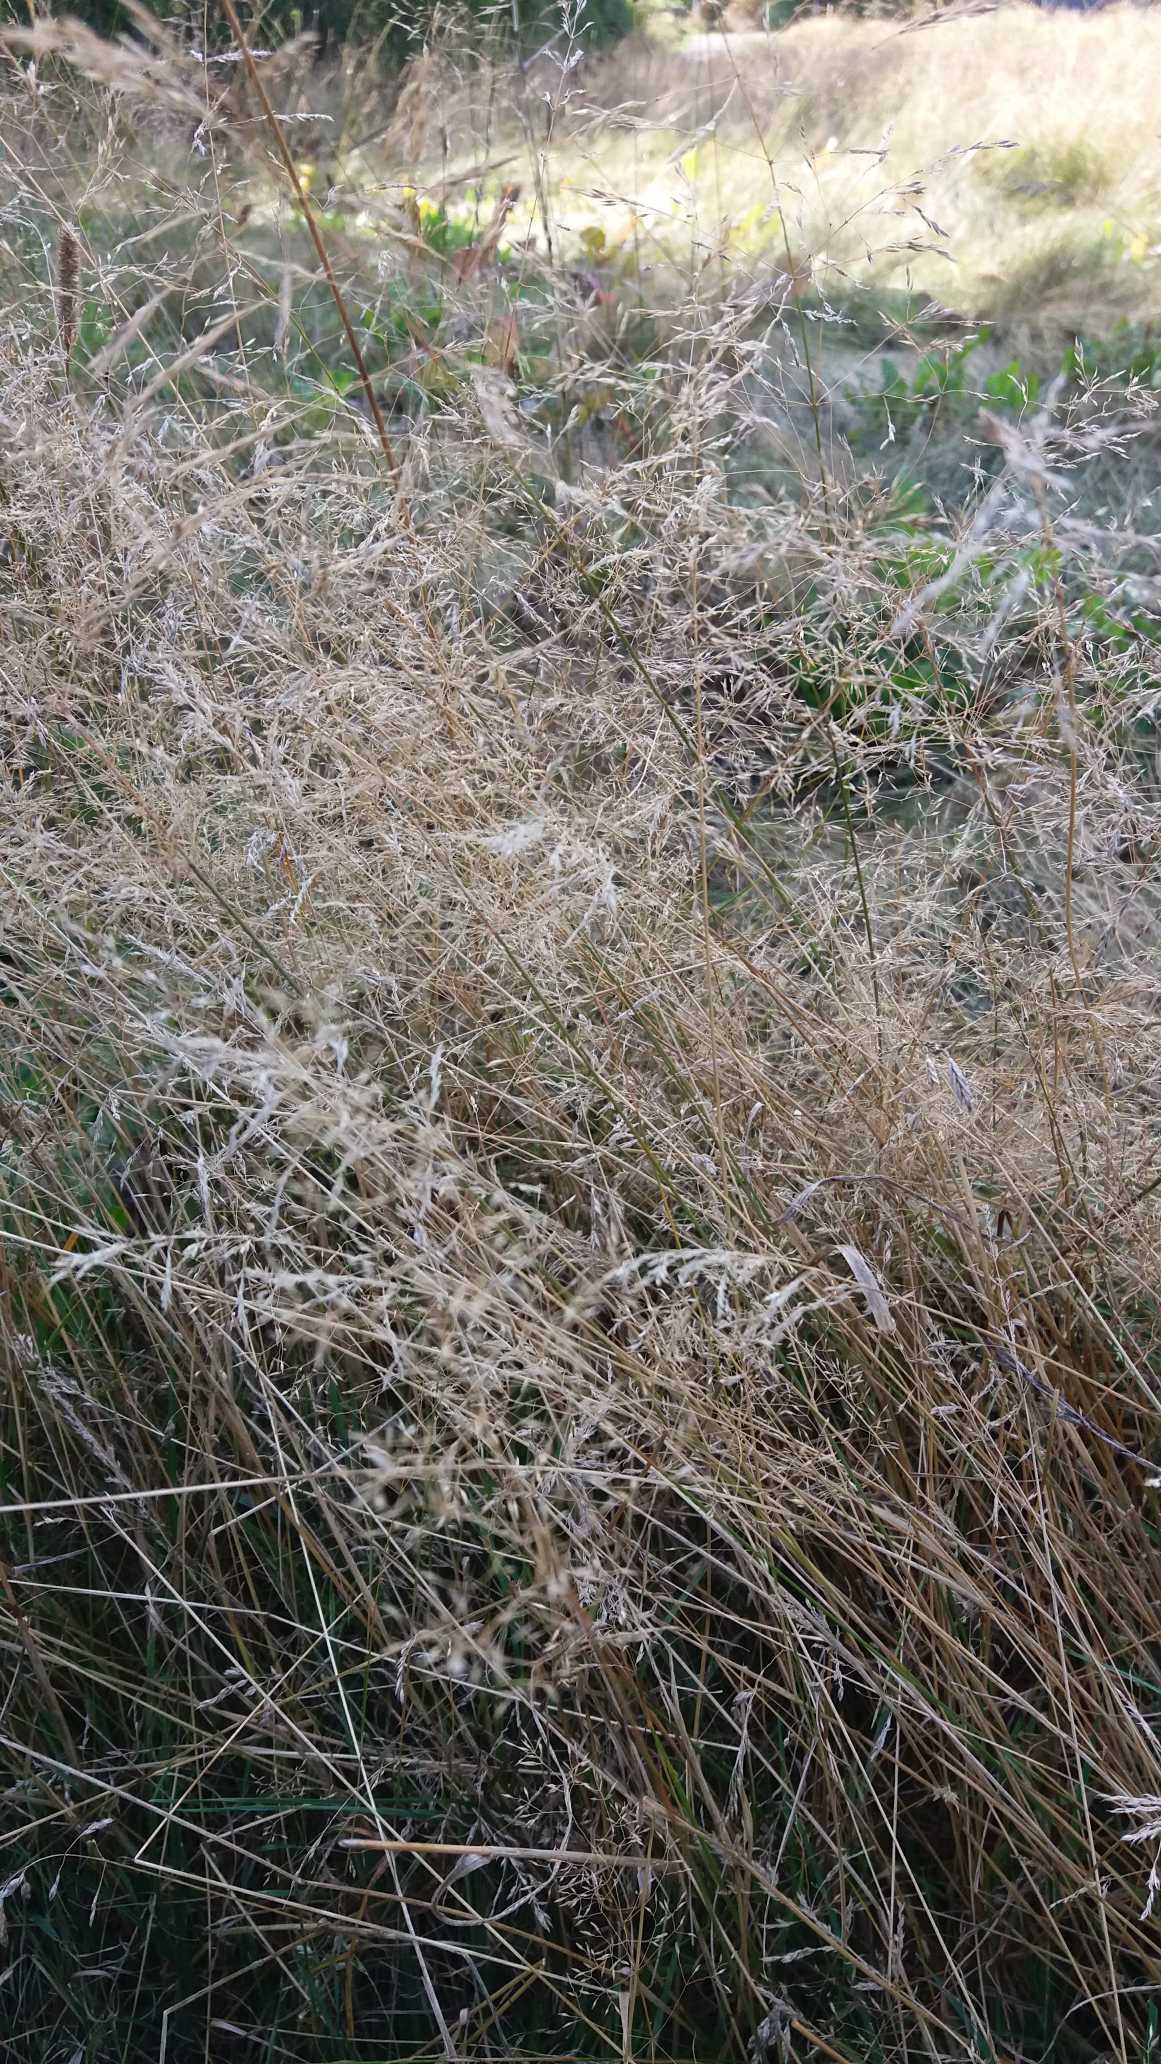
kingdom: Plantae
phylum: Tracheophyta
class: Liliopsida
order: Poales
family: Poaceae
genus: Agrostis
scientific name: Agrostis
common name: Hveneslægten
